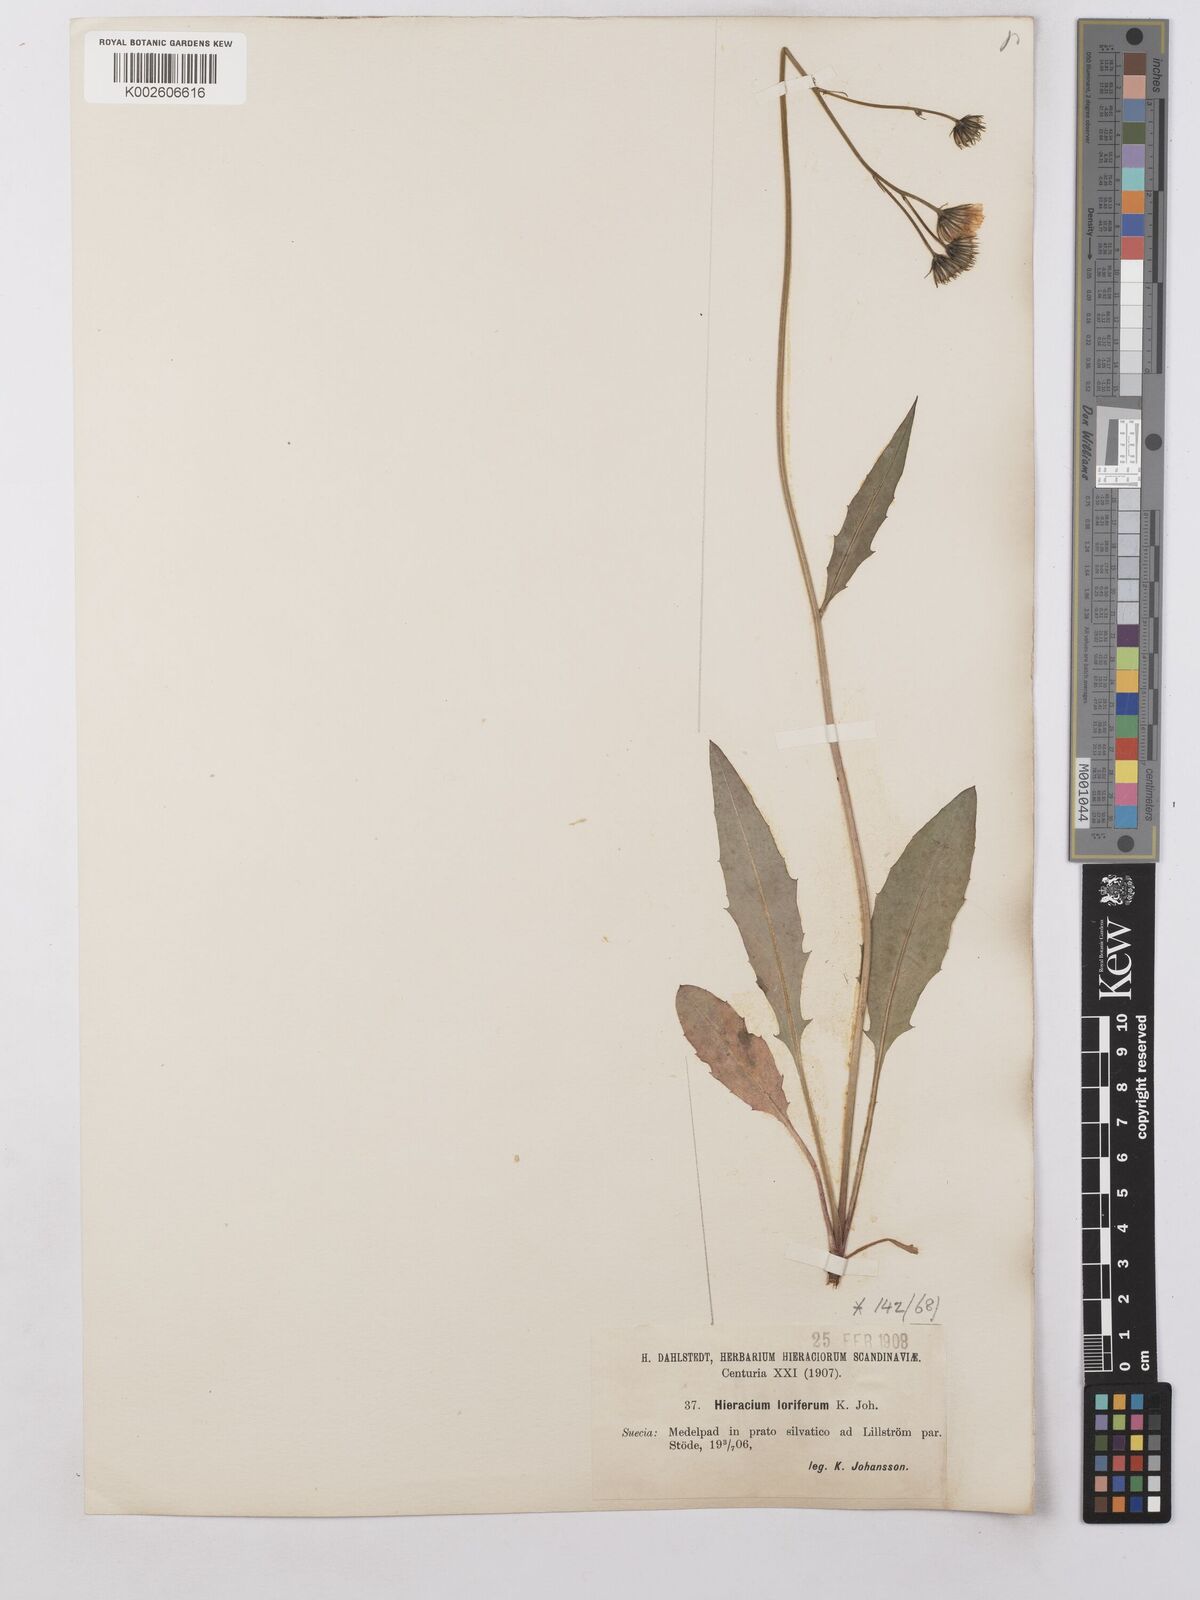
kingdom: Plantae
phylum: Tracheophyta
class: Magnoliopsida
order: Asterales
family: Asteraceae
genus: Hieracium
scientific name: Hieracium lachenalii
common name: Common hawkweed
